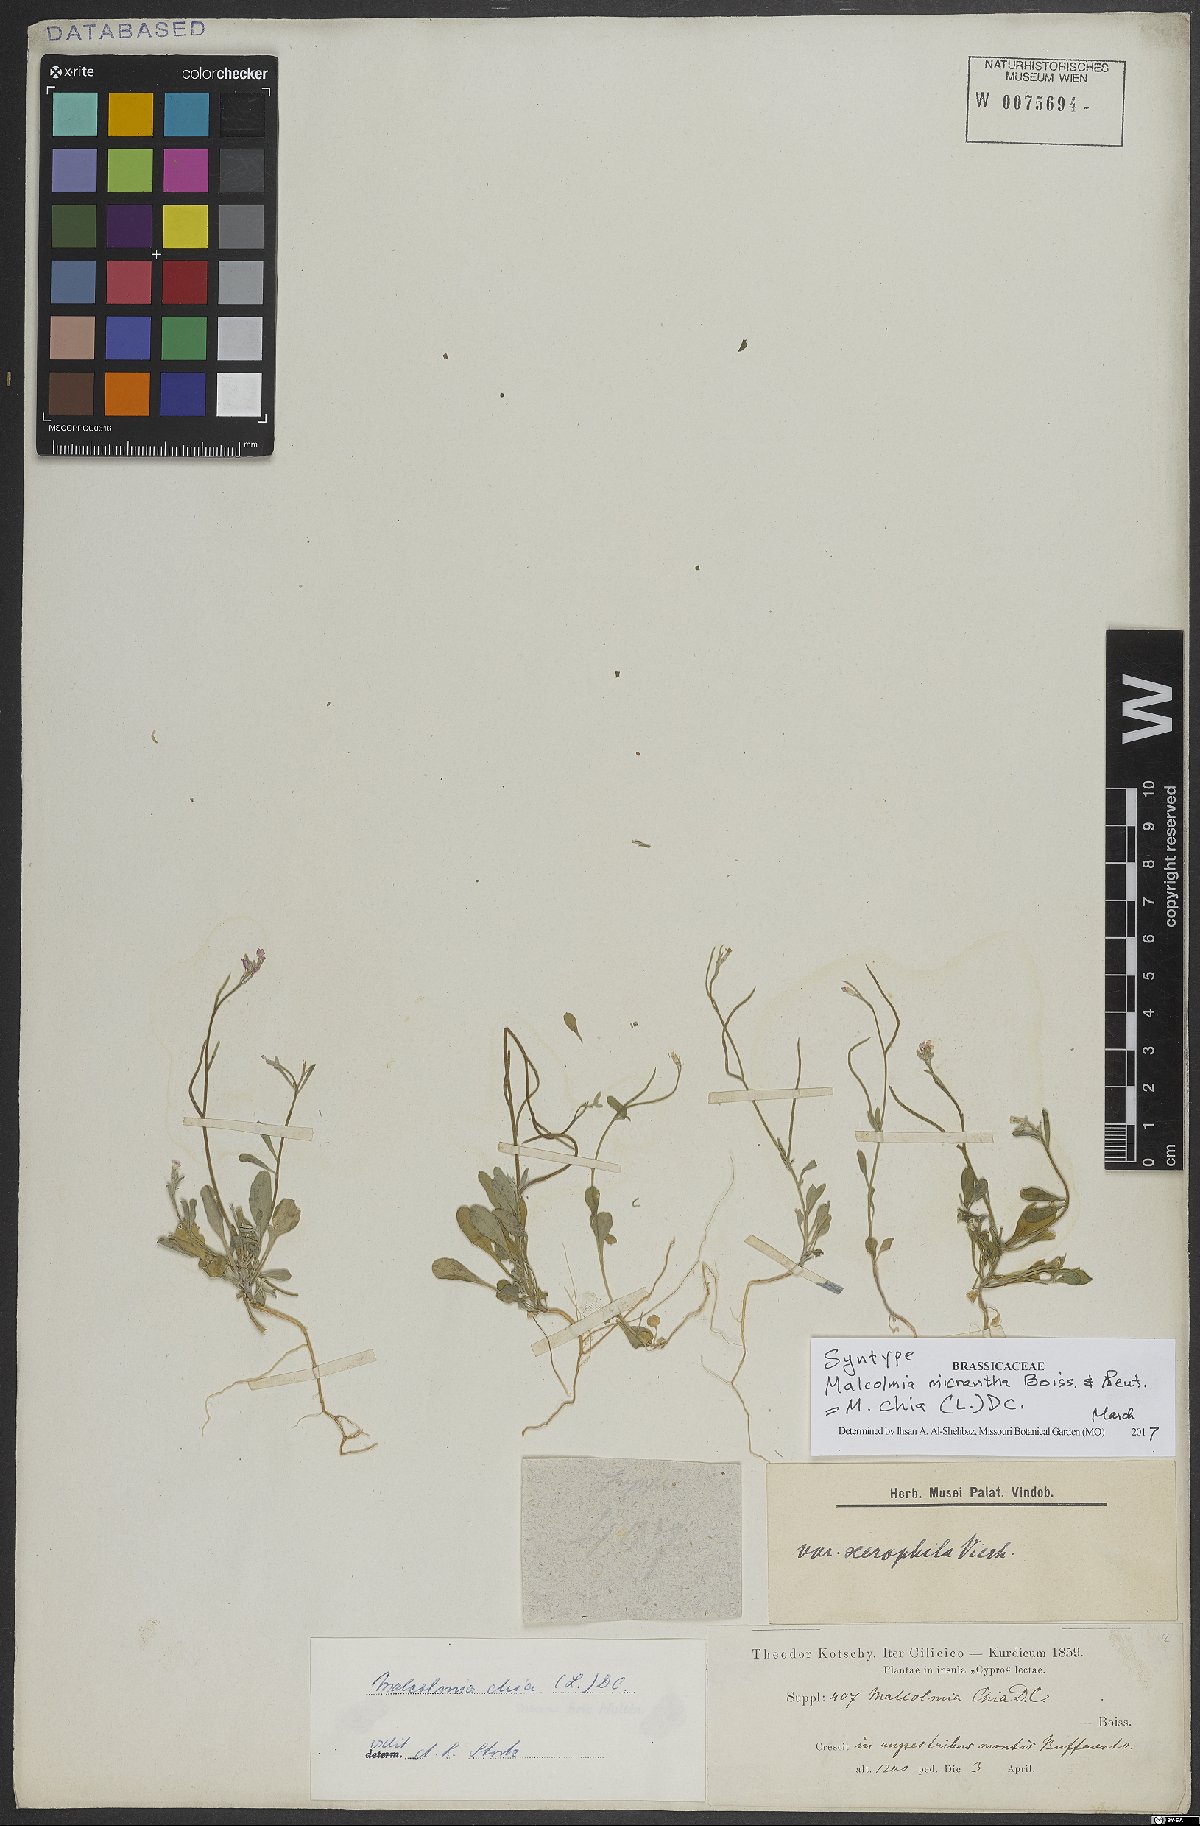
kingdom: Plantae
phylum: Tracheophyta
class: Magnoliopsida
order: Brassicales
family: Brassicaceae
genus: Malcolmia
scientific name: Malcolmia chia
